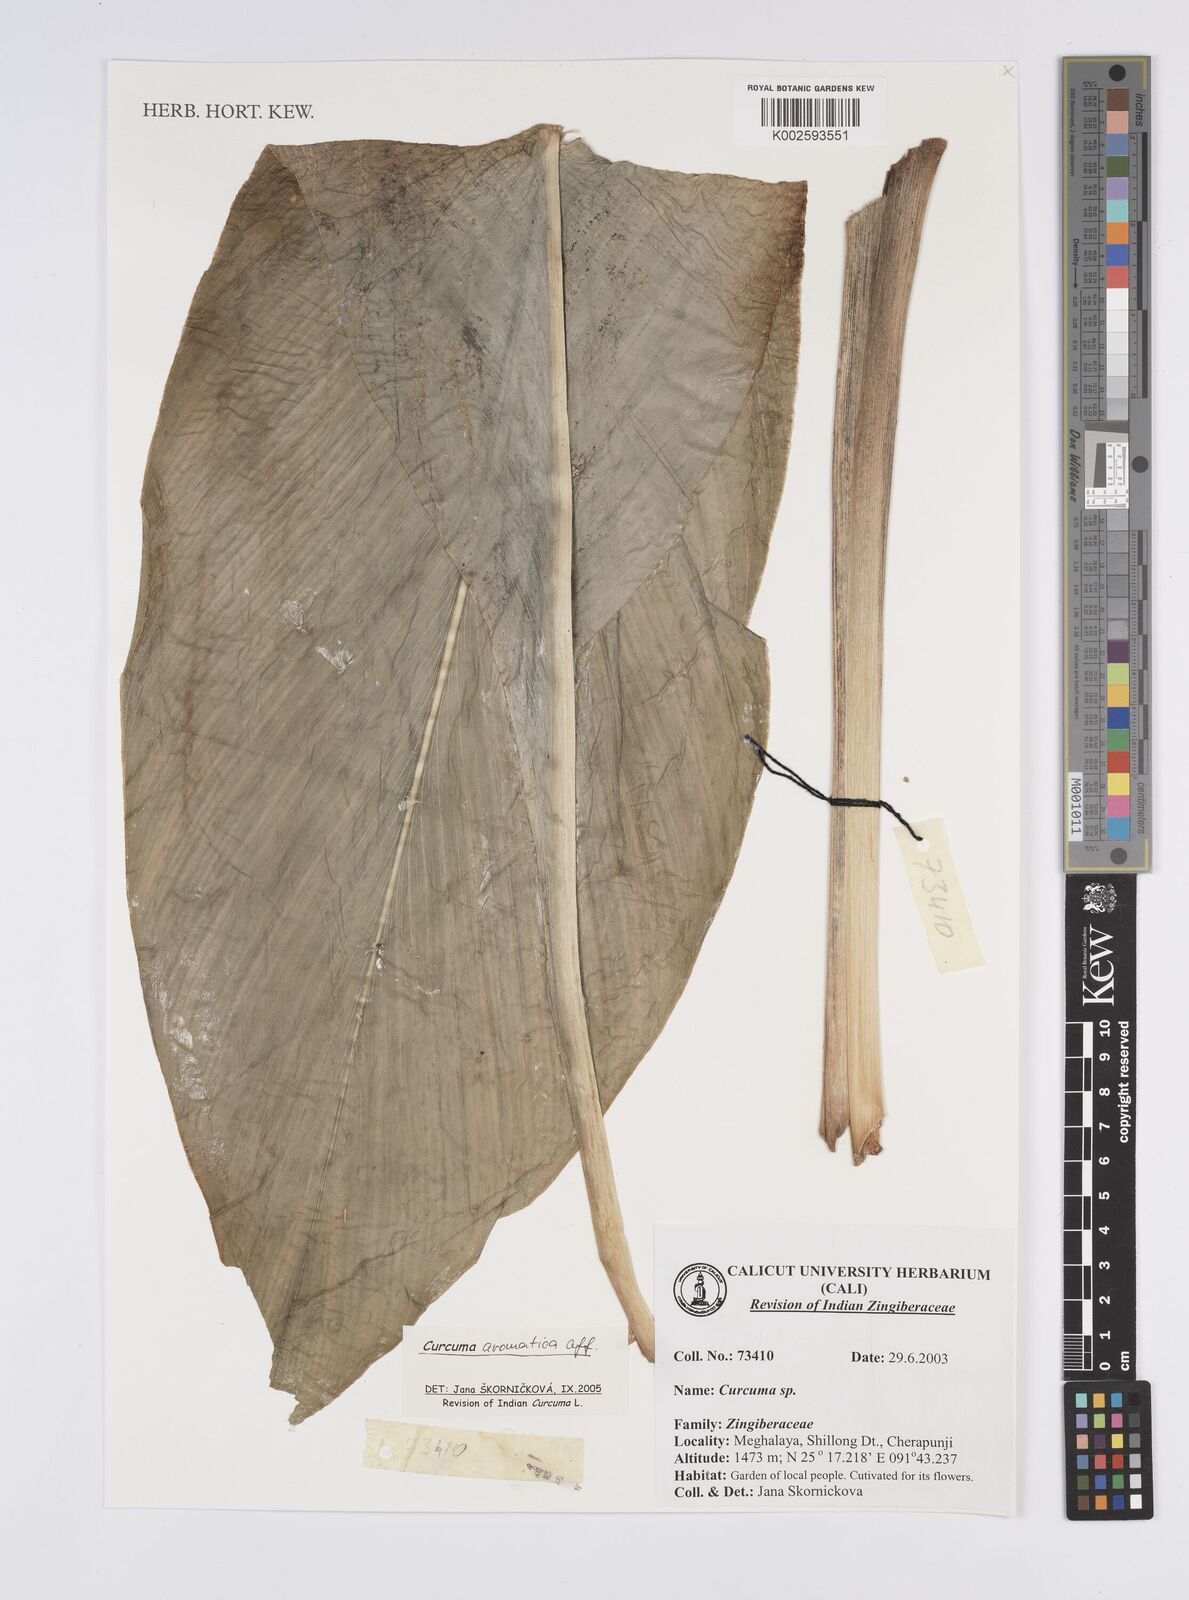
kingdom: Plantae
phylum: Tracheophyta
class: Liliopsida
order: Zingiberales
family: Zingiberaceae
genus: Curcuma
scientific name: Curcuma aromatica
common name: Wild turmeric
